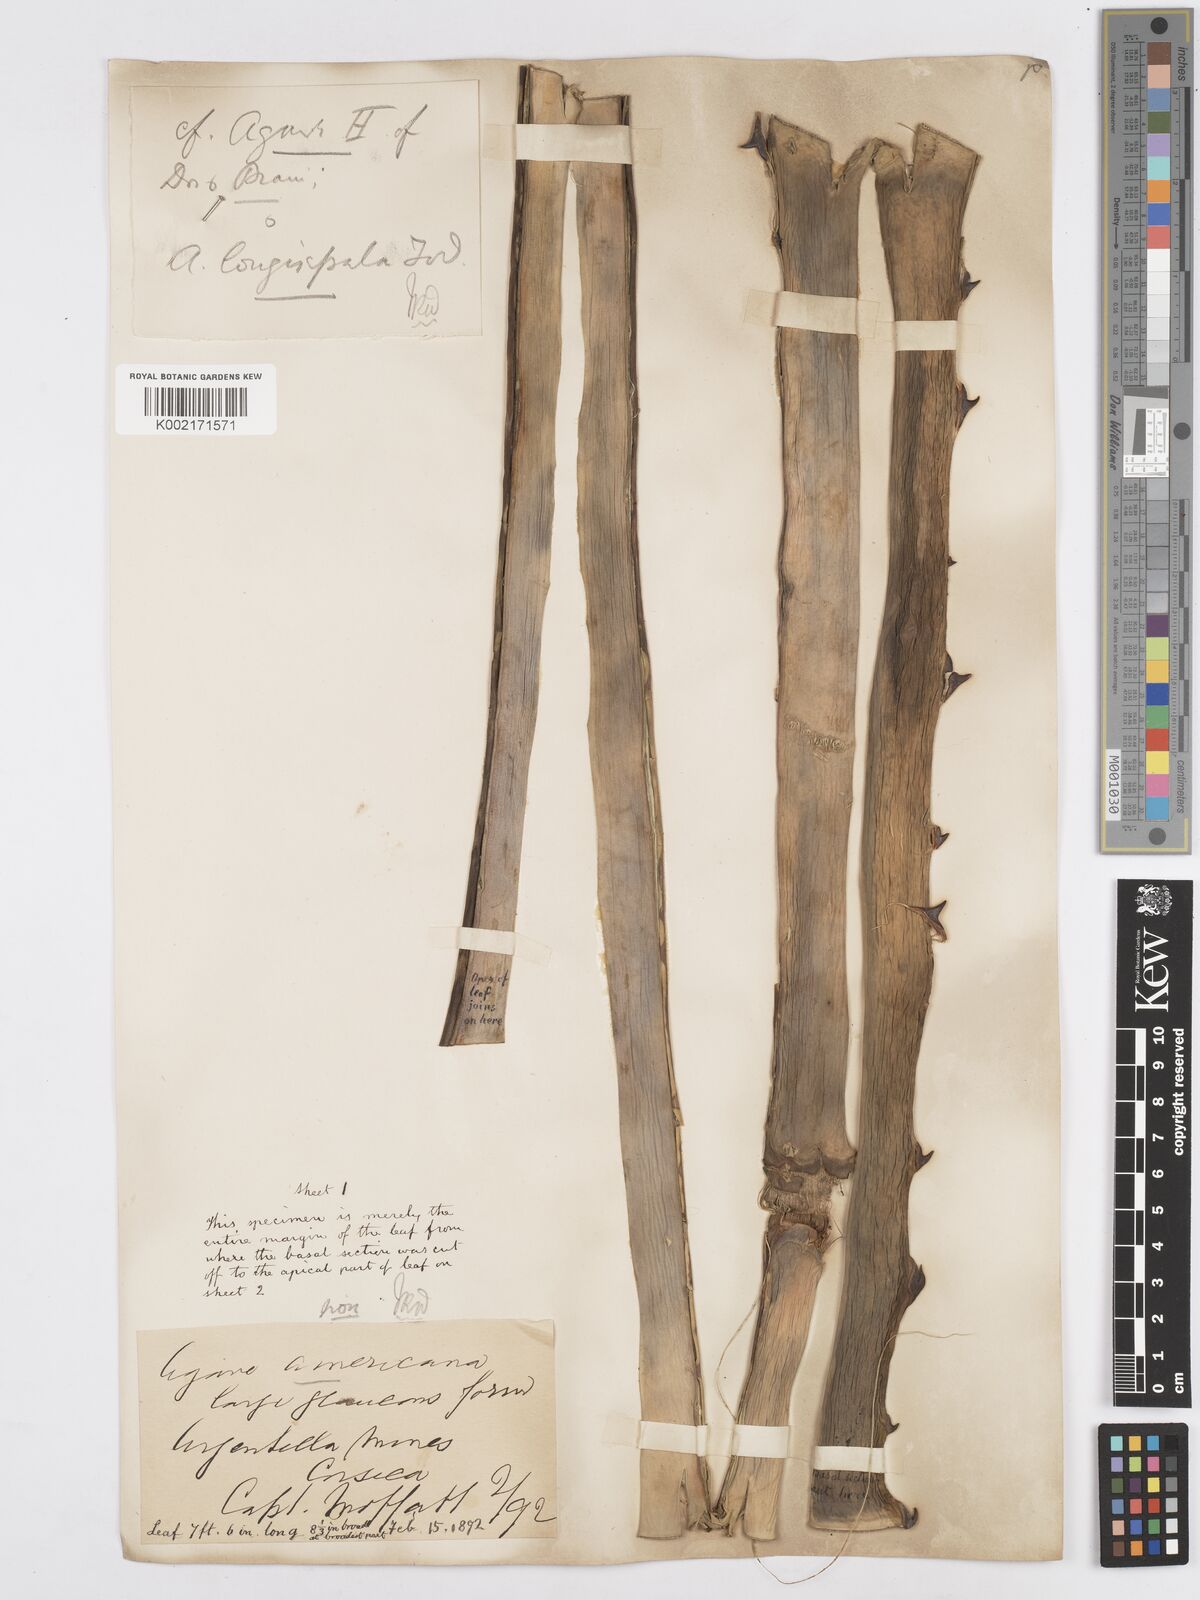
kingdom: Plantae
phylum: Tracheophyta
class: Liliopsida
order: Asparagales
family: Asparagaceae
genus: Agave
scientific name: Agave longisepala
